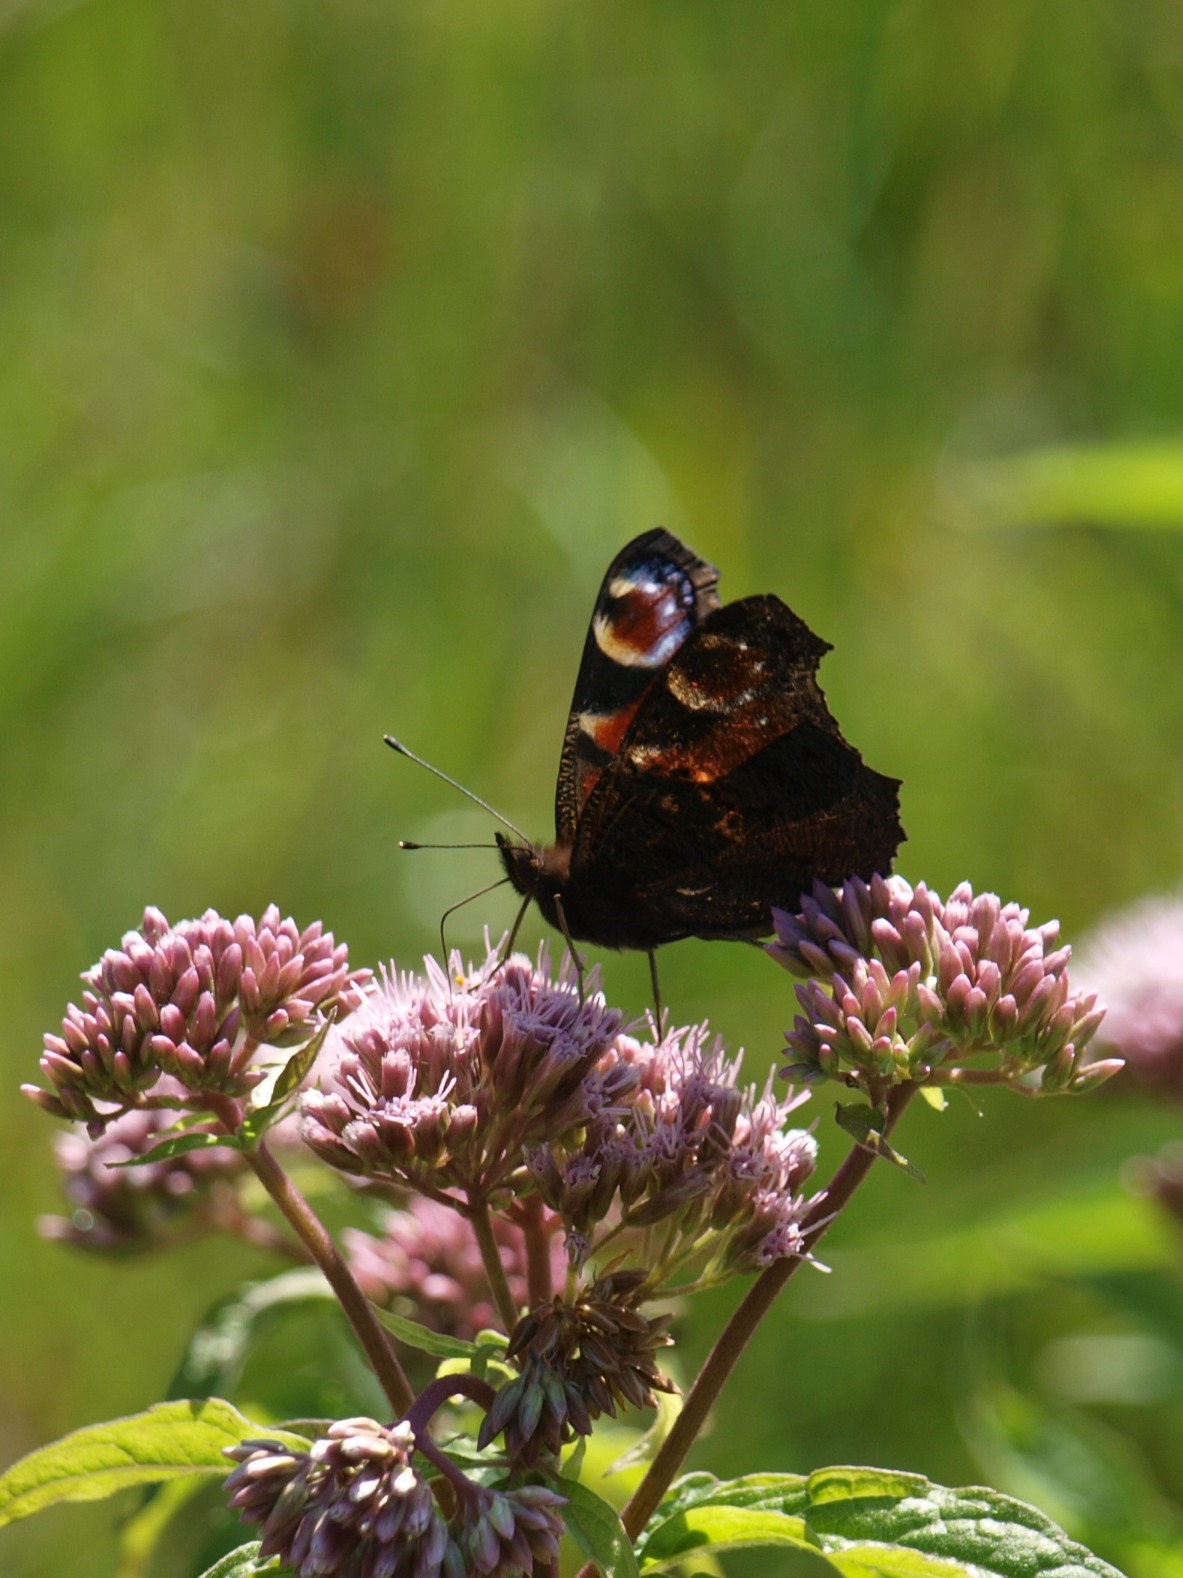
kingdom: Animalia
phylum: Arthropoda
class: Insecta
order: Lepidoptera
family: Nymphalidae
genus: Aglais
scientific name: Aglais io
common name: Dagpåfugleøje
